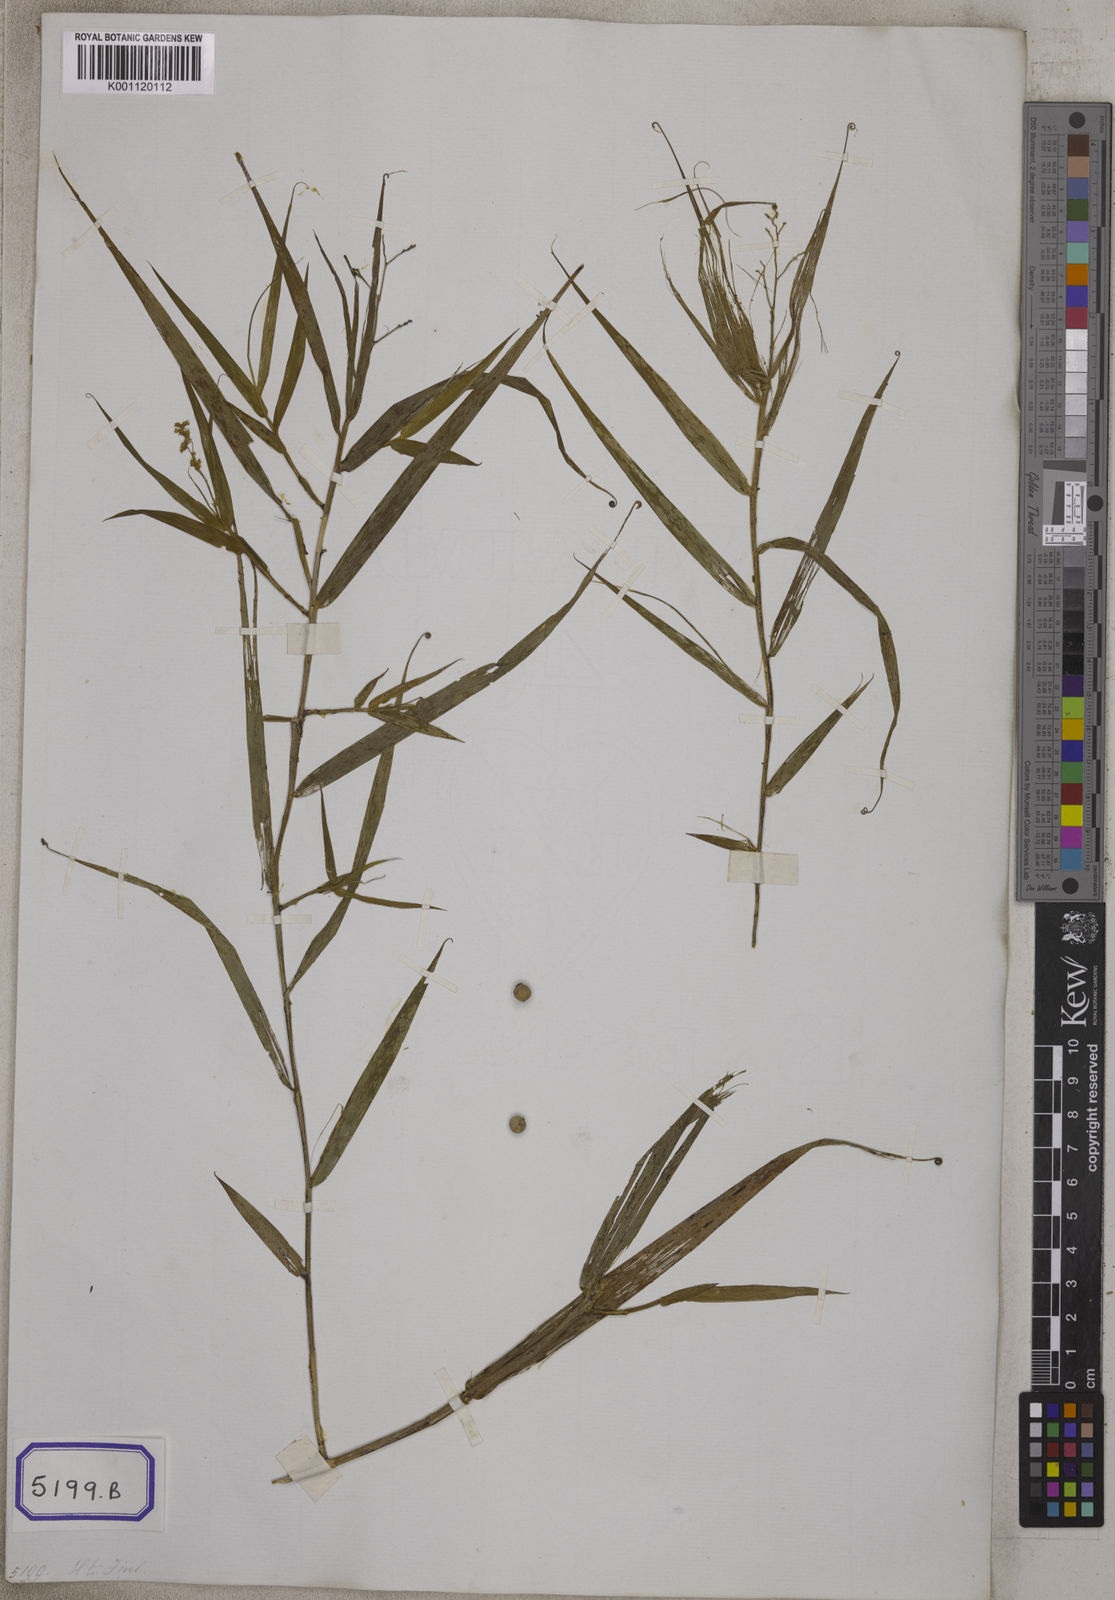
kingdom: Plantae
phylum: Tracheophyta
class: Liliopsida
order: Poales
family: Flagellariaceae
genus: Flagellaria
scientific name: Flagellaria indica
